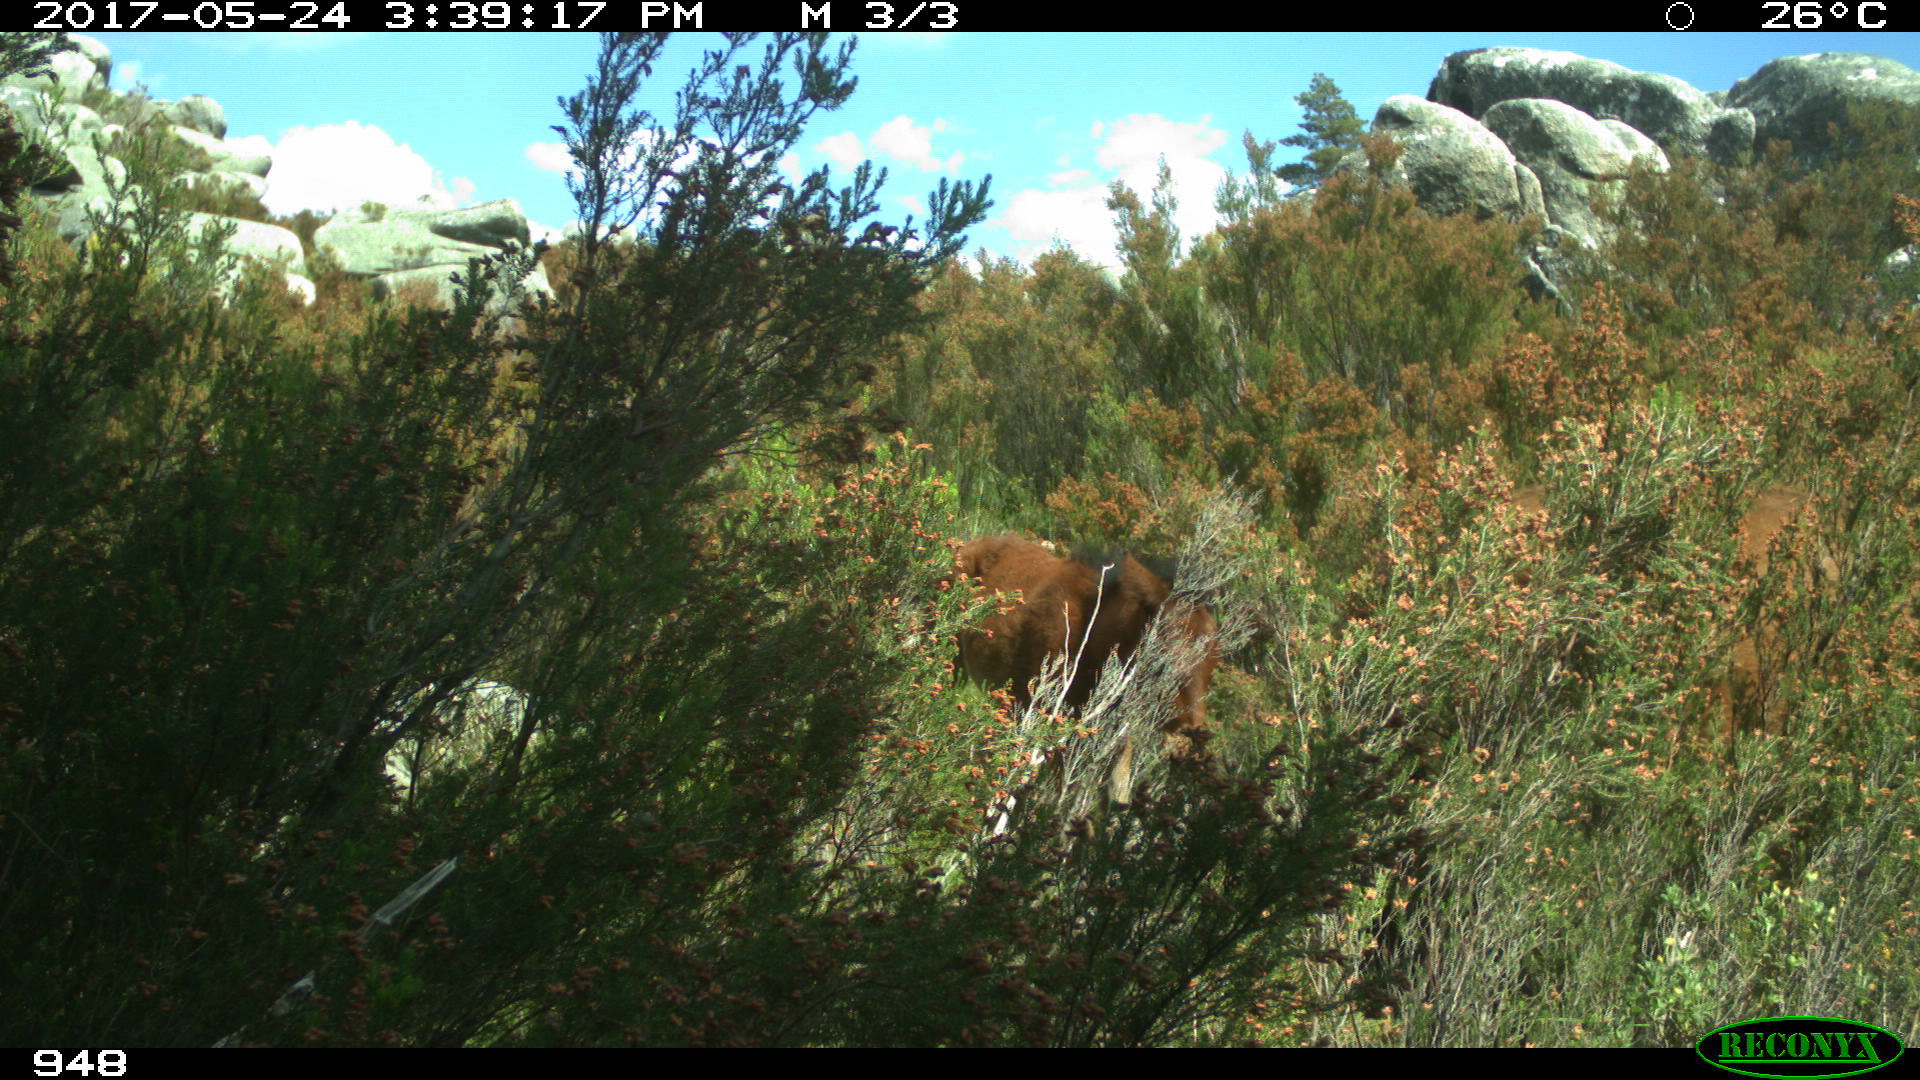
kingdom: Animalia
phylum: Chordata
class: Mammalia
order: Perissodactyla
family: Equidae
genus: Equus
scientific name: Equus caballus
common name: Horse
